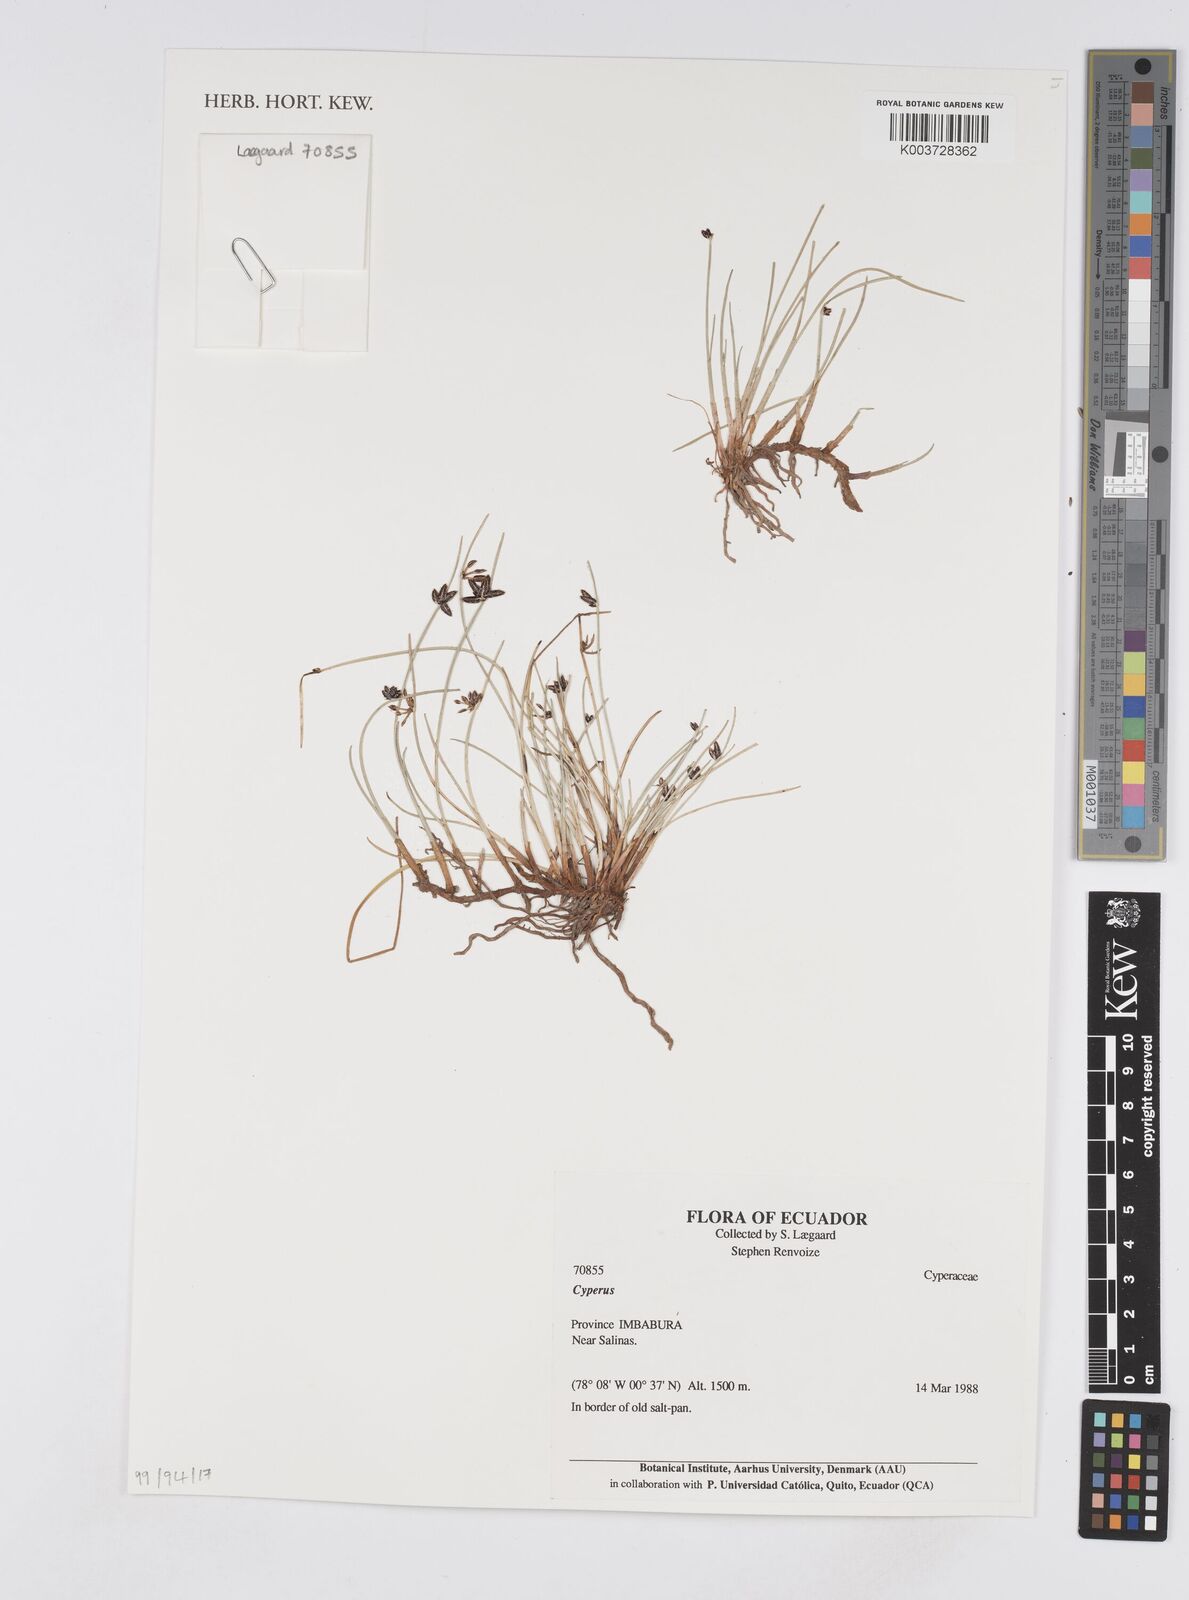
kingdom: Plantae
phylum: Tracheophyta
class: Liliopsida
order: Poales
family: Cyperaceae
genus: Cyperus
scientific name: Cyperus
